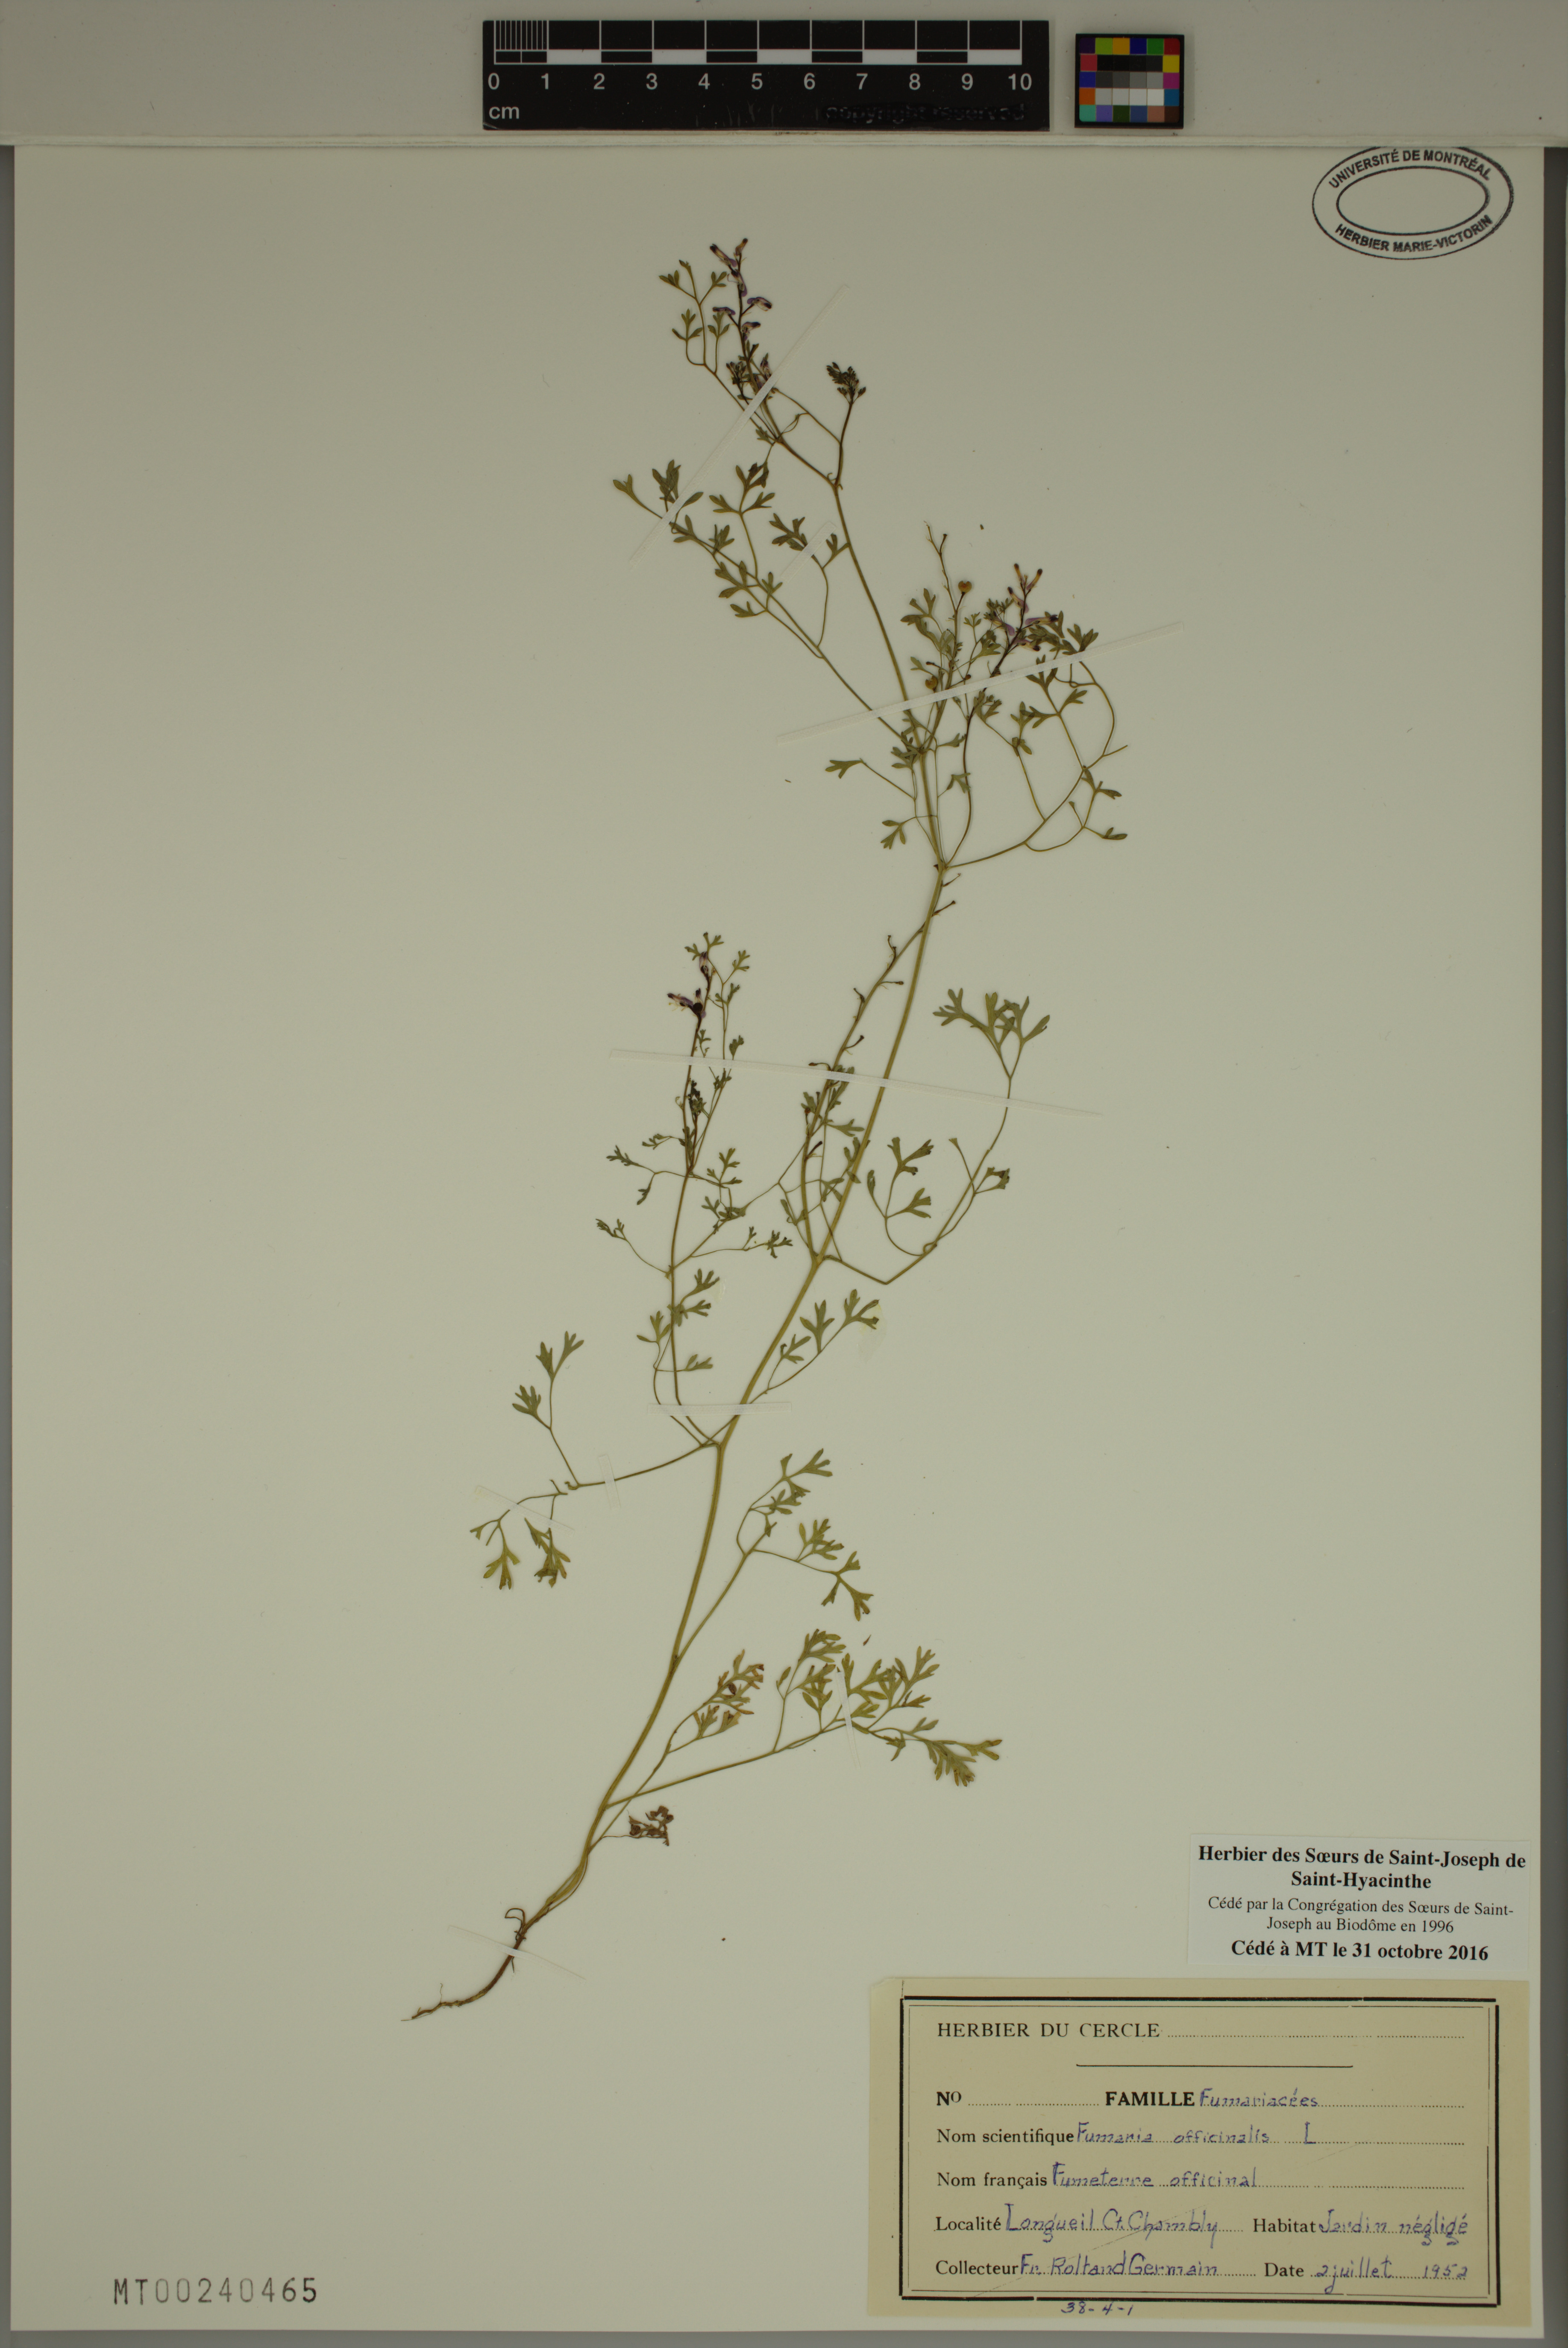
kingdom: Plantae
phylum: Tracheophyta
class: Magnoliopsida
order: Ranunculales
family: Papaveraceae
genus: Fumaria
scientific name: Fumaria officinalis
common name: Common fumitory
